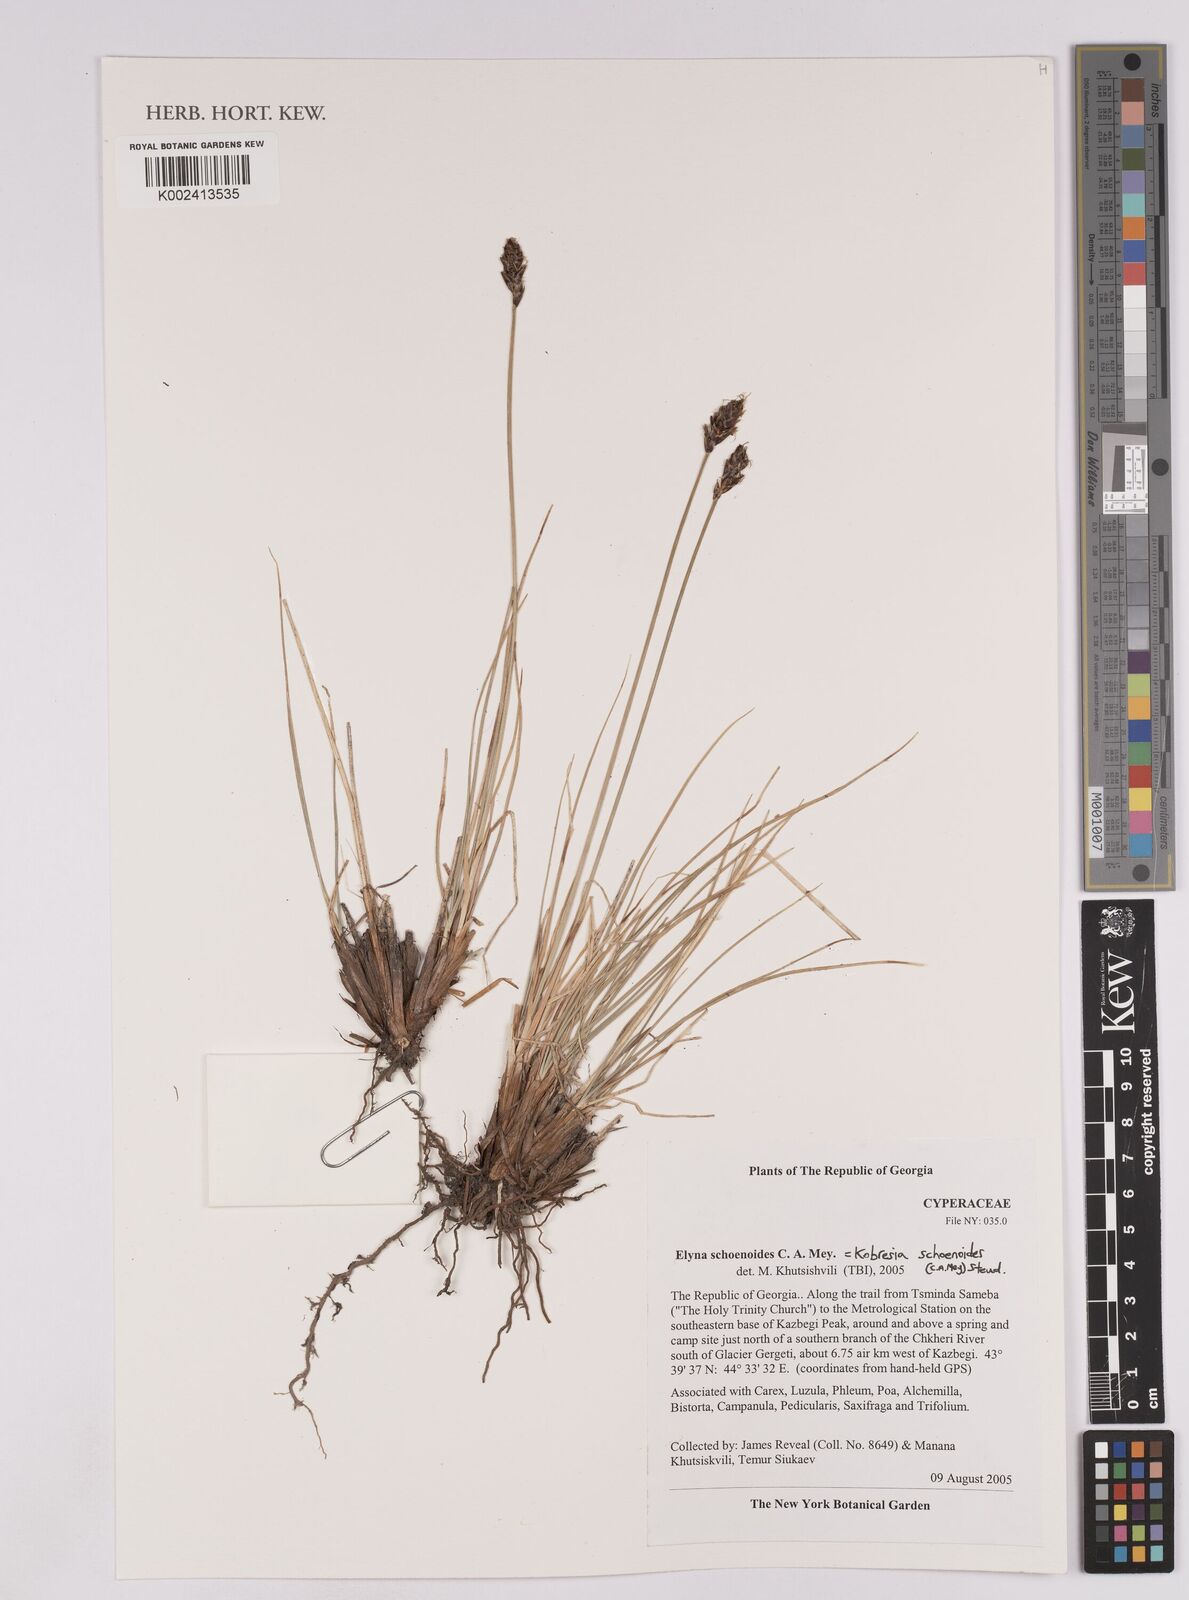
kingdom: Plantae
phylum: Tracheophyta
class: Liliopsida
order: Poales
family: Cyperaceae
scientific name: Cyperaceae
